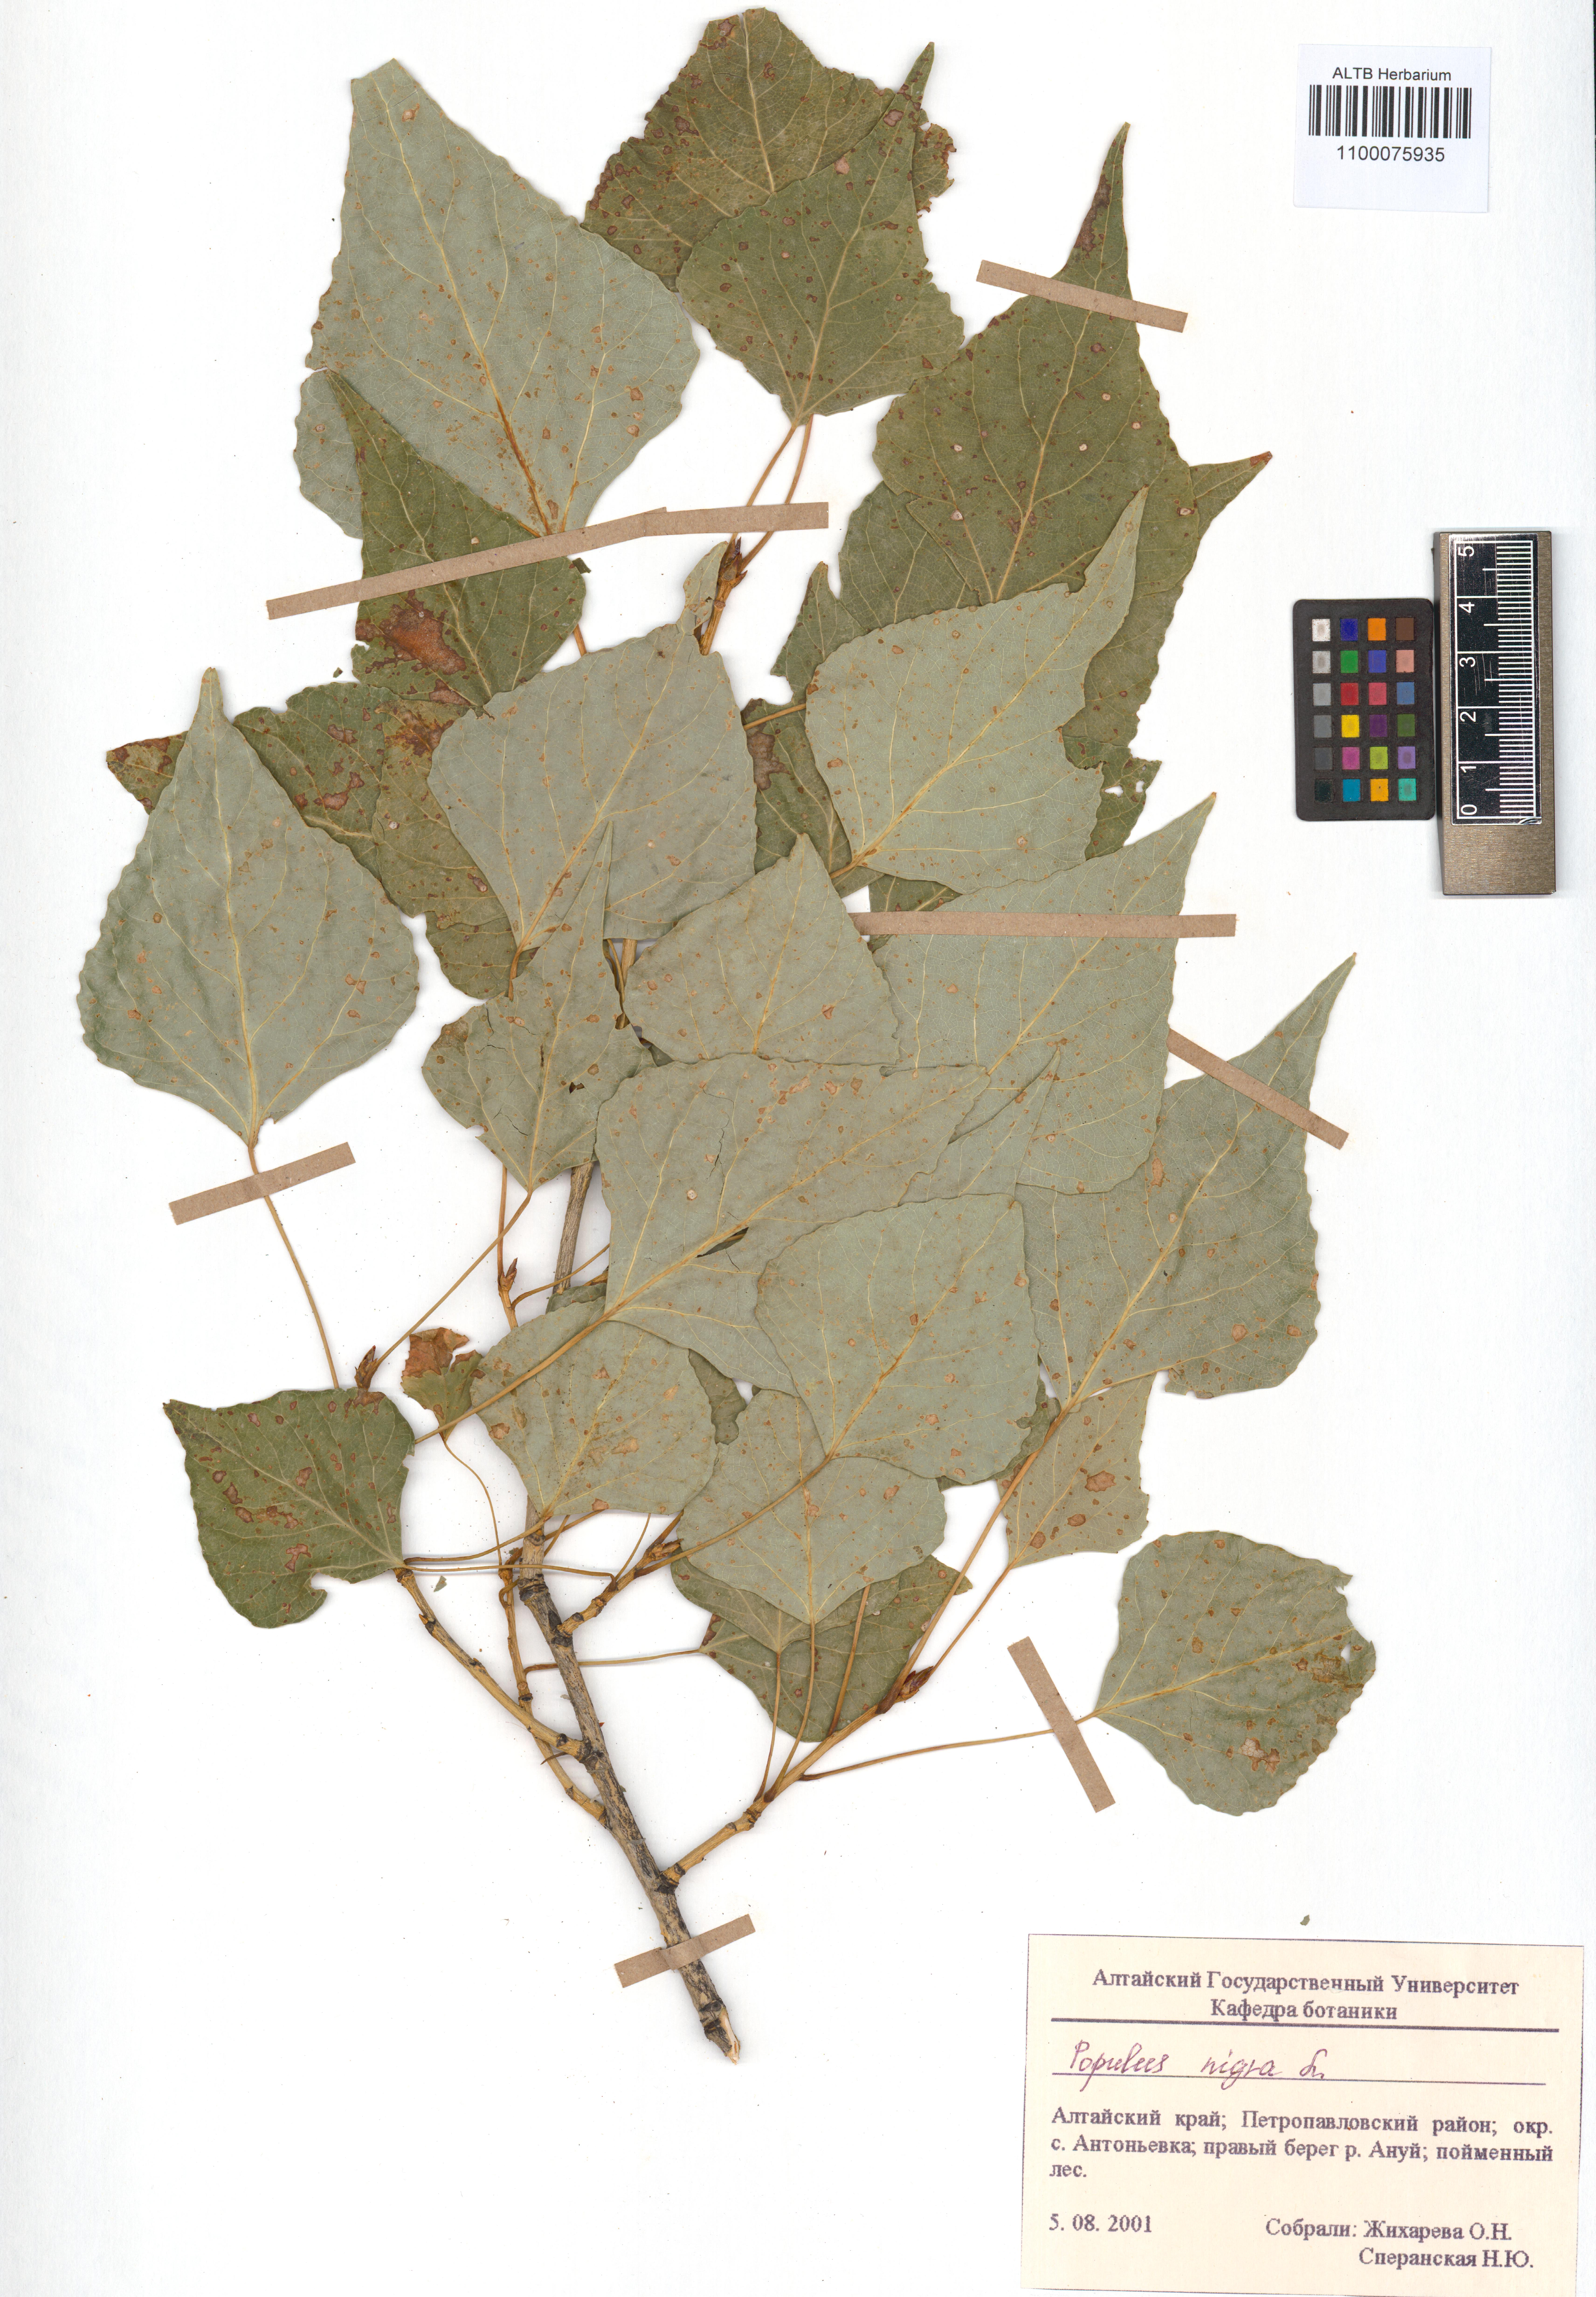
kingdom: Plantae
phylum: Tracheophyta
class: Magnoliopsida
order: Malpighiales
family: Salicaceae
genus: Populus
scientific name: Populus nigra
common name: Black poplar
